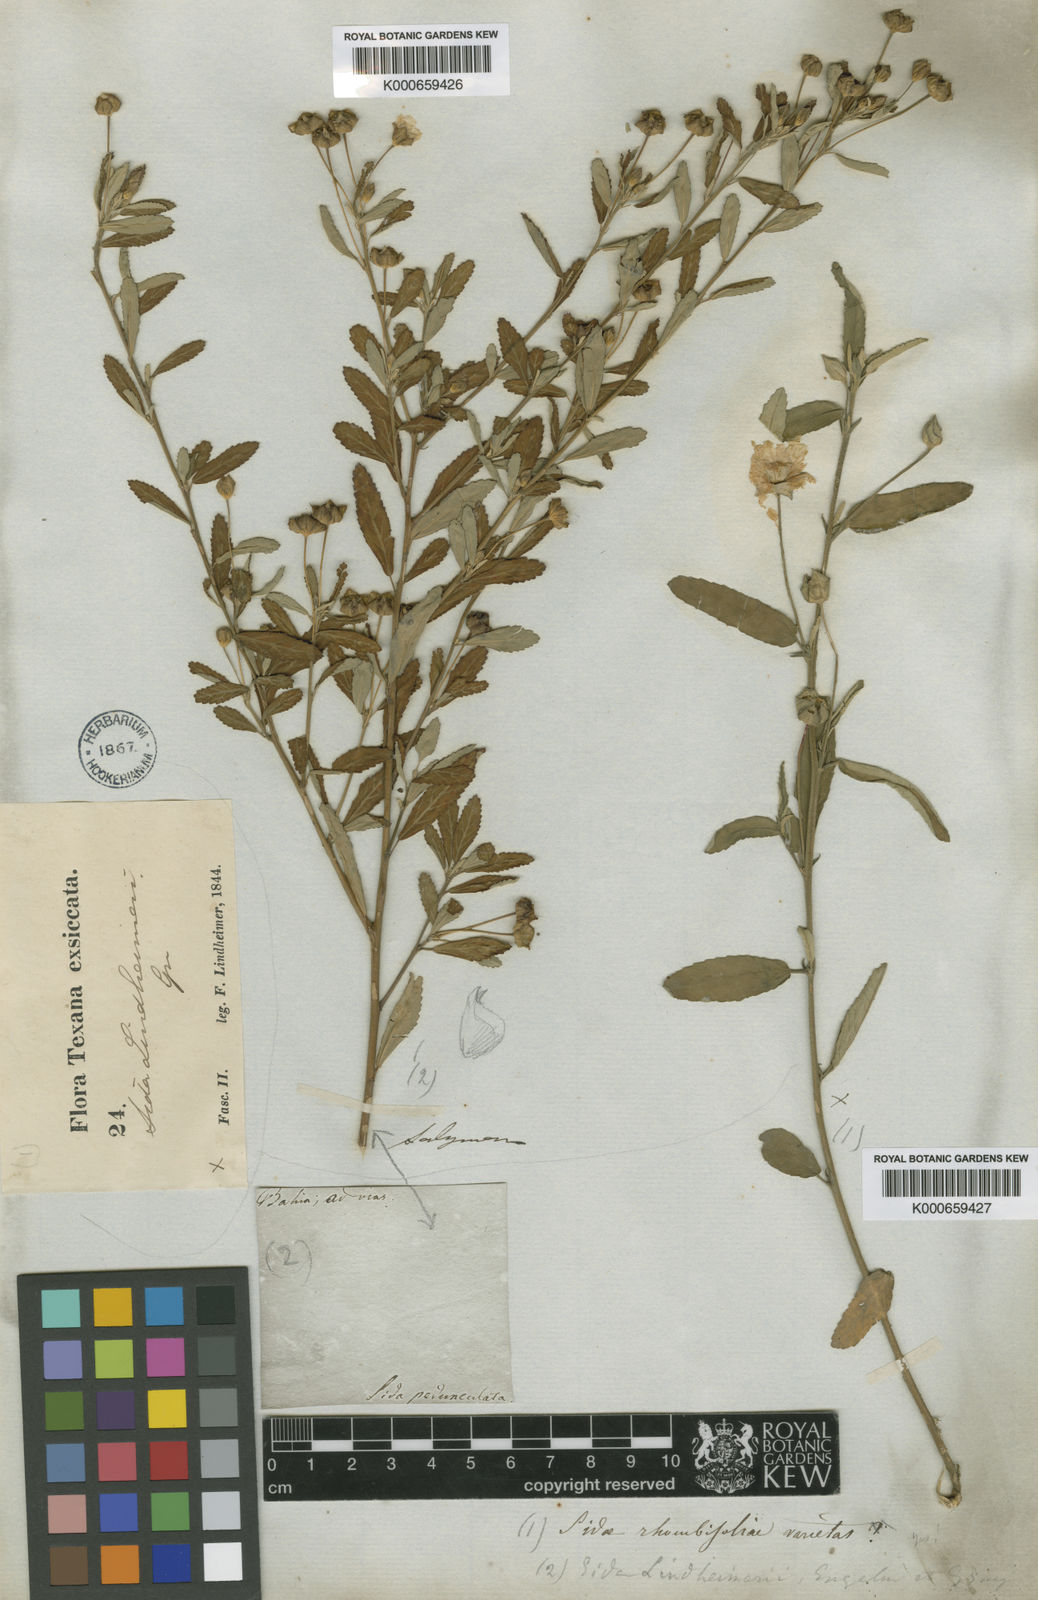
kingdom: Plantae
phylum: Tracheophyta
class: Magnoliopsida
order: Malvales
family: Malvaceae
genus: Sida
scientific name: Sida lindheimeri
